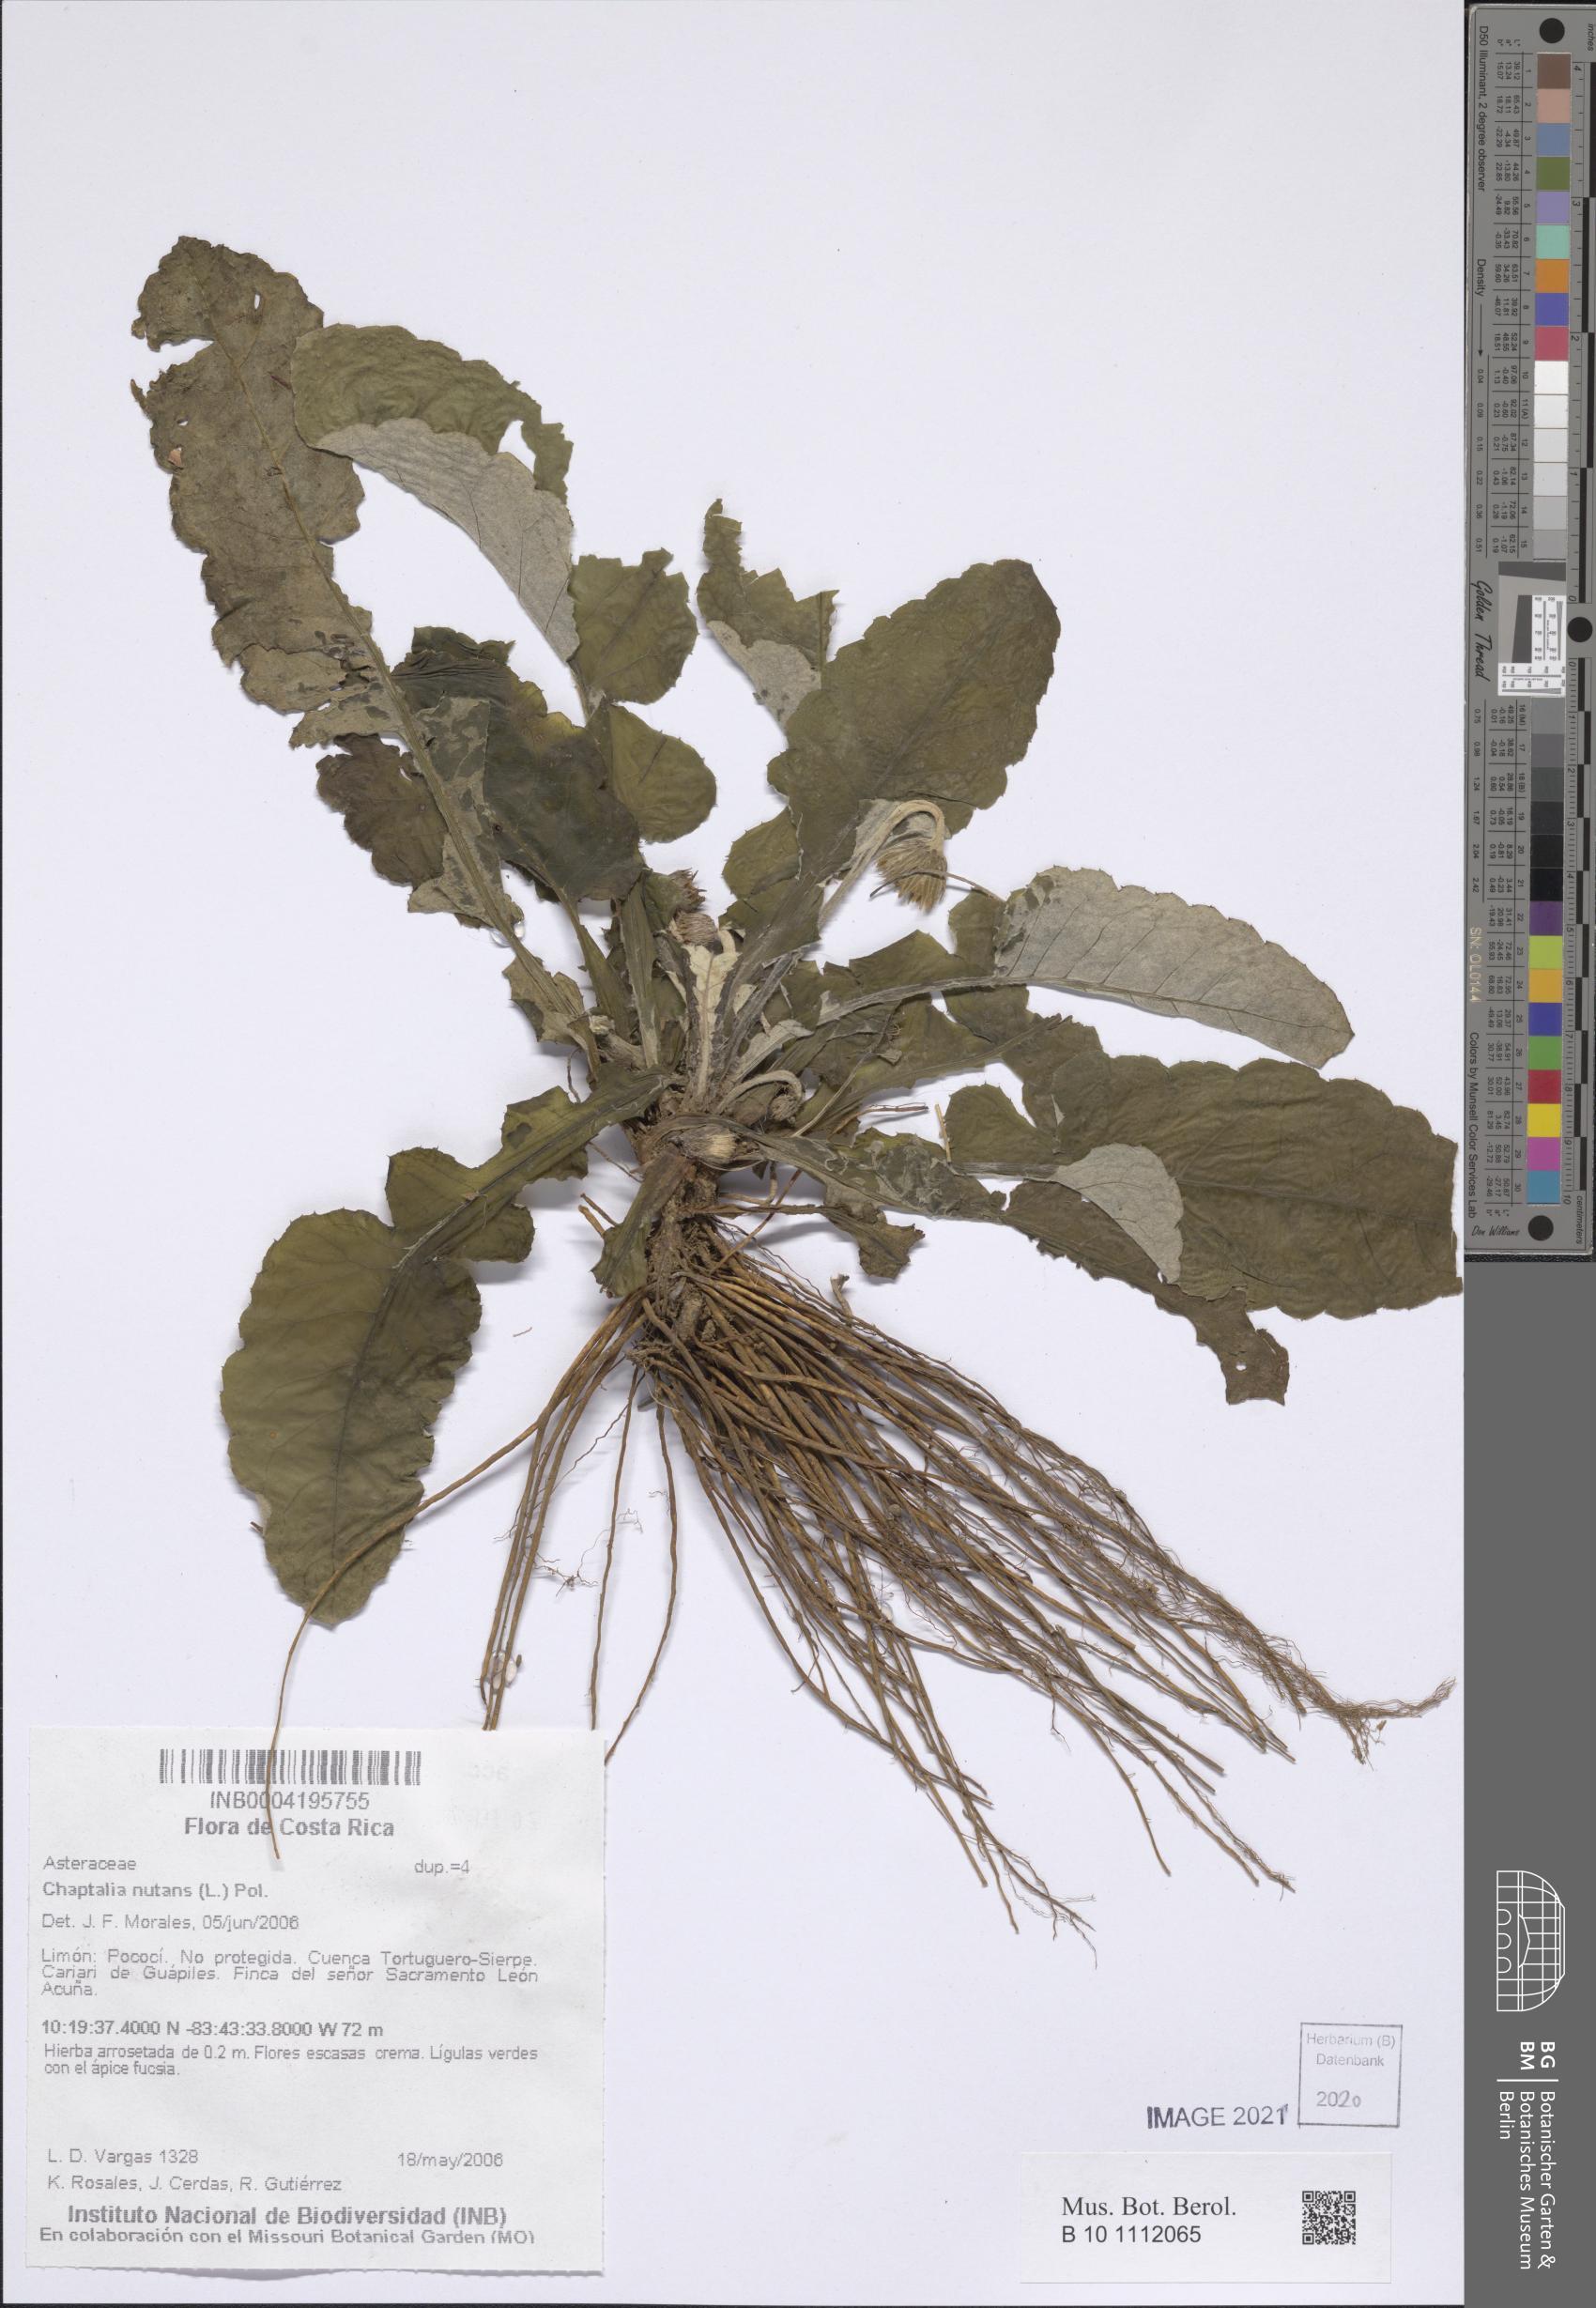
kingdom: Plantae
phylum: Tracheophyta
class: Magnoliopsida
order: Asterales
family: Asteraceae
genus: Chaptalia
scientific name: Chaptalia nutans
